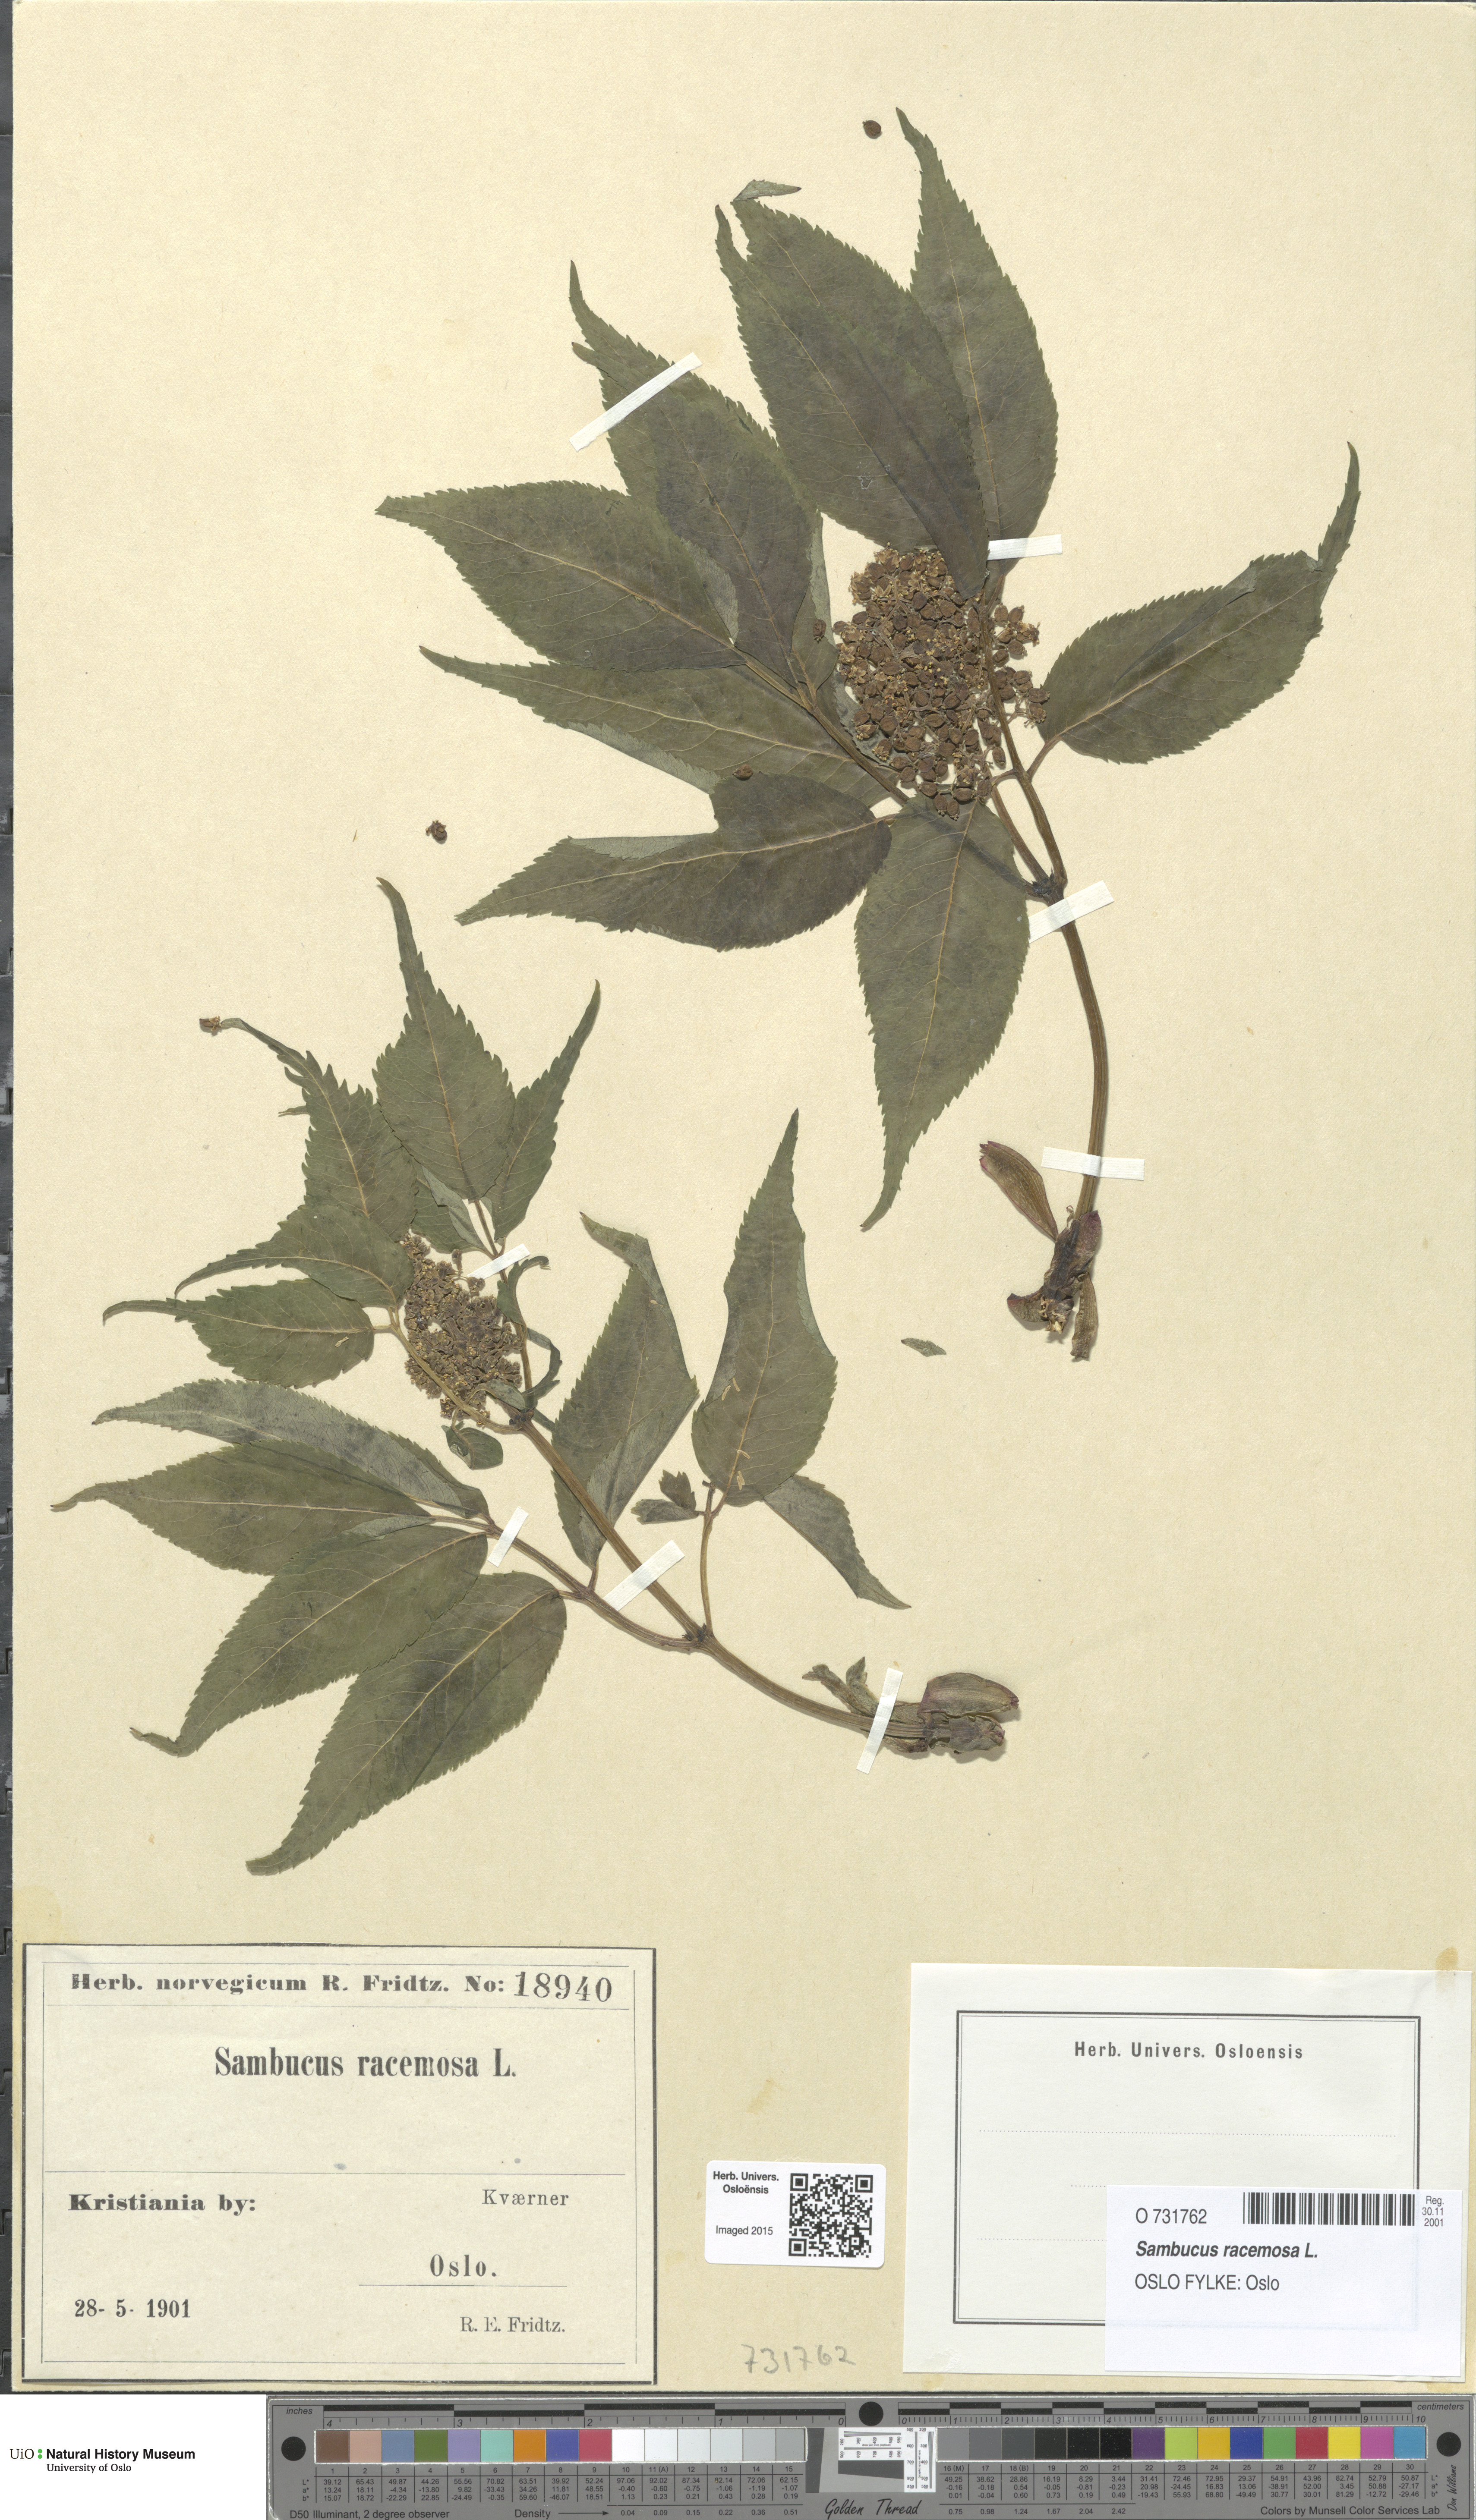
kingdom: Plantae
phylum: Tracheophyta
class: Magnoliopsida
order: Dipsacales
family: Viburnaceae
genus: Sambucus
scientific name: Sambucus racemosa
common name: Red-berried elder
